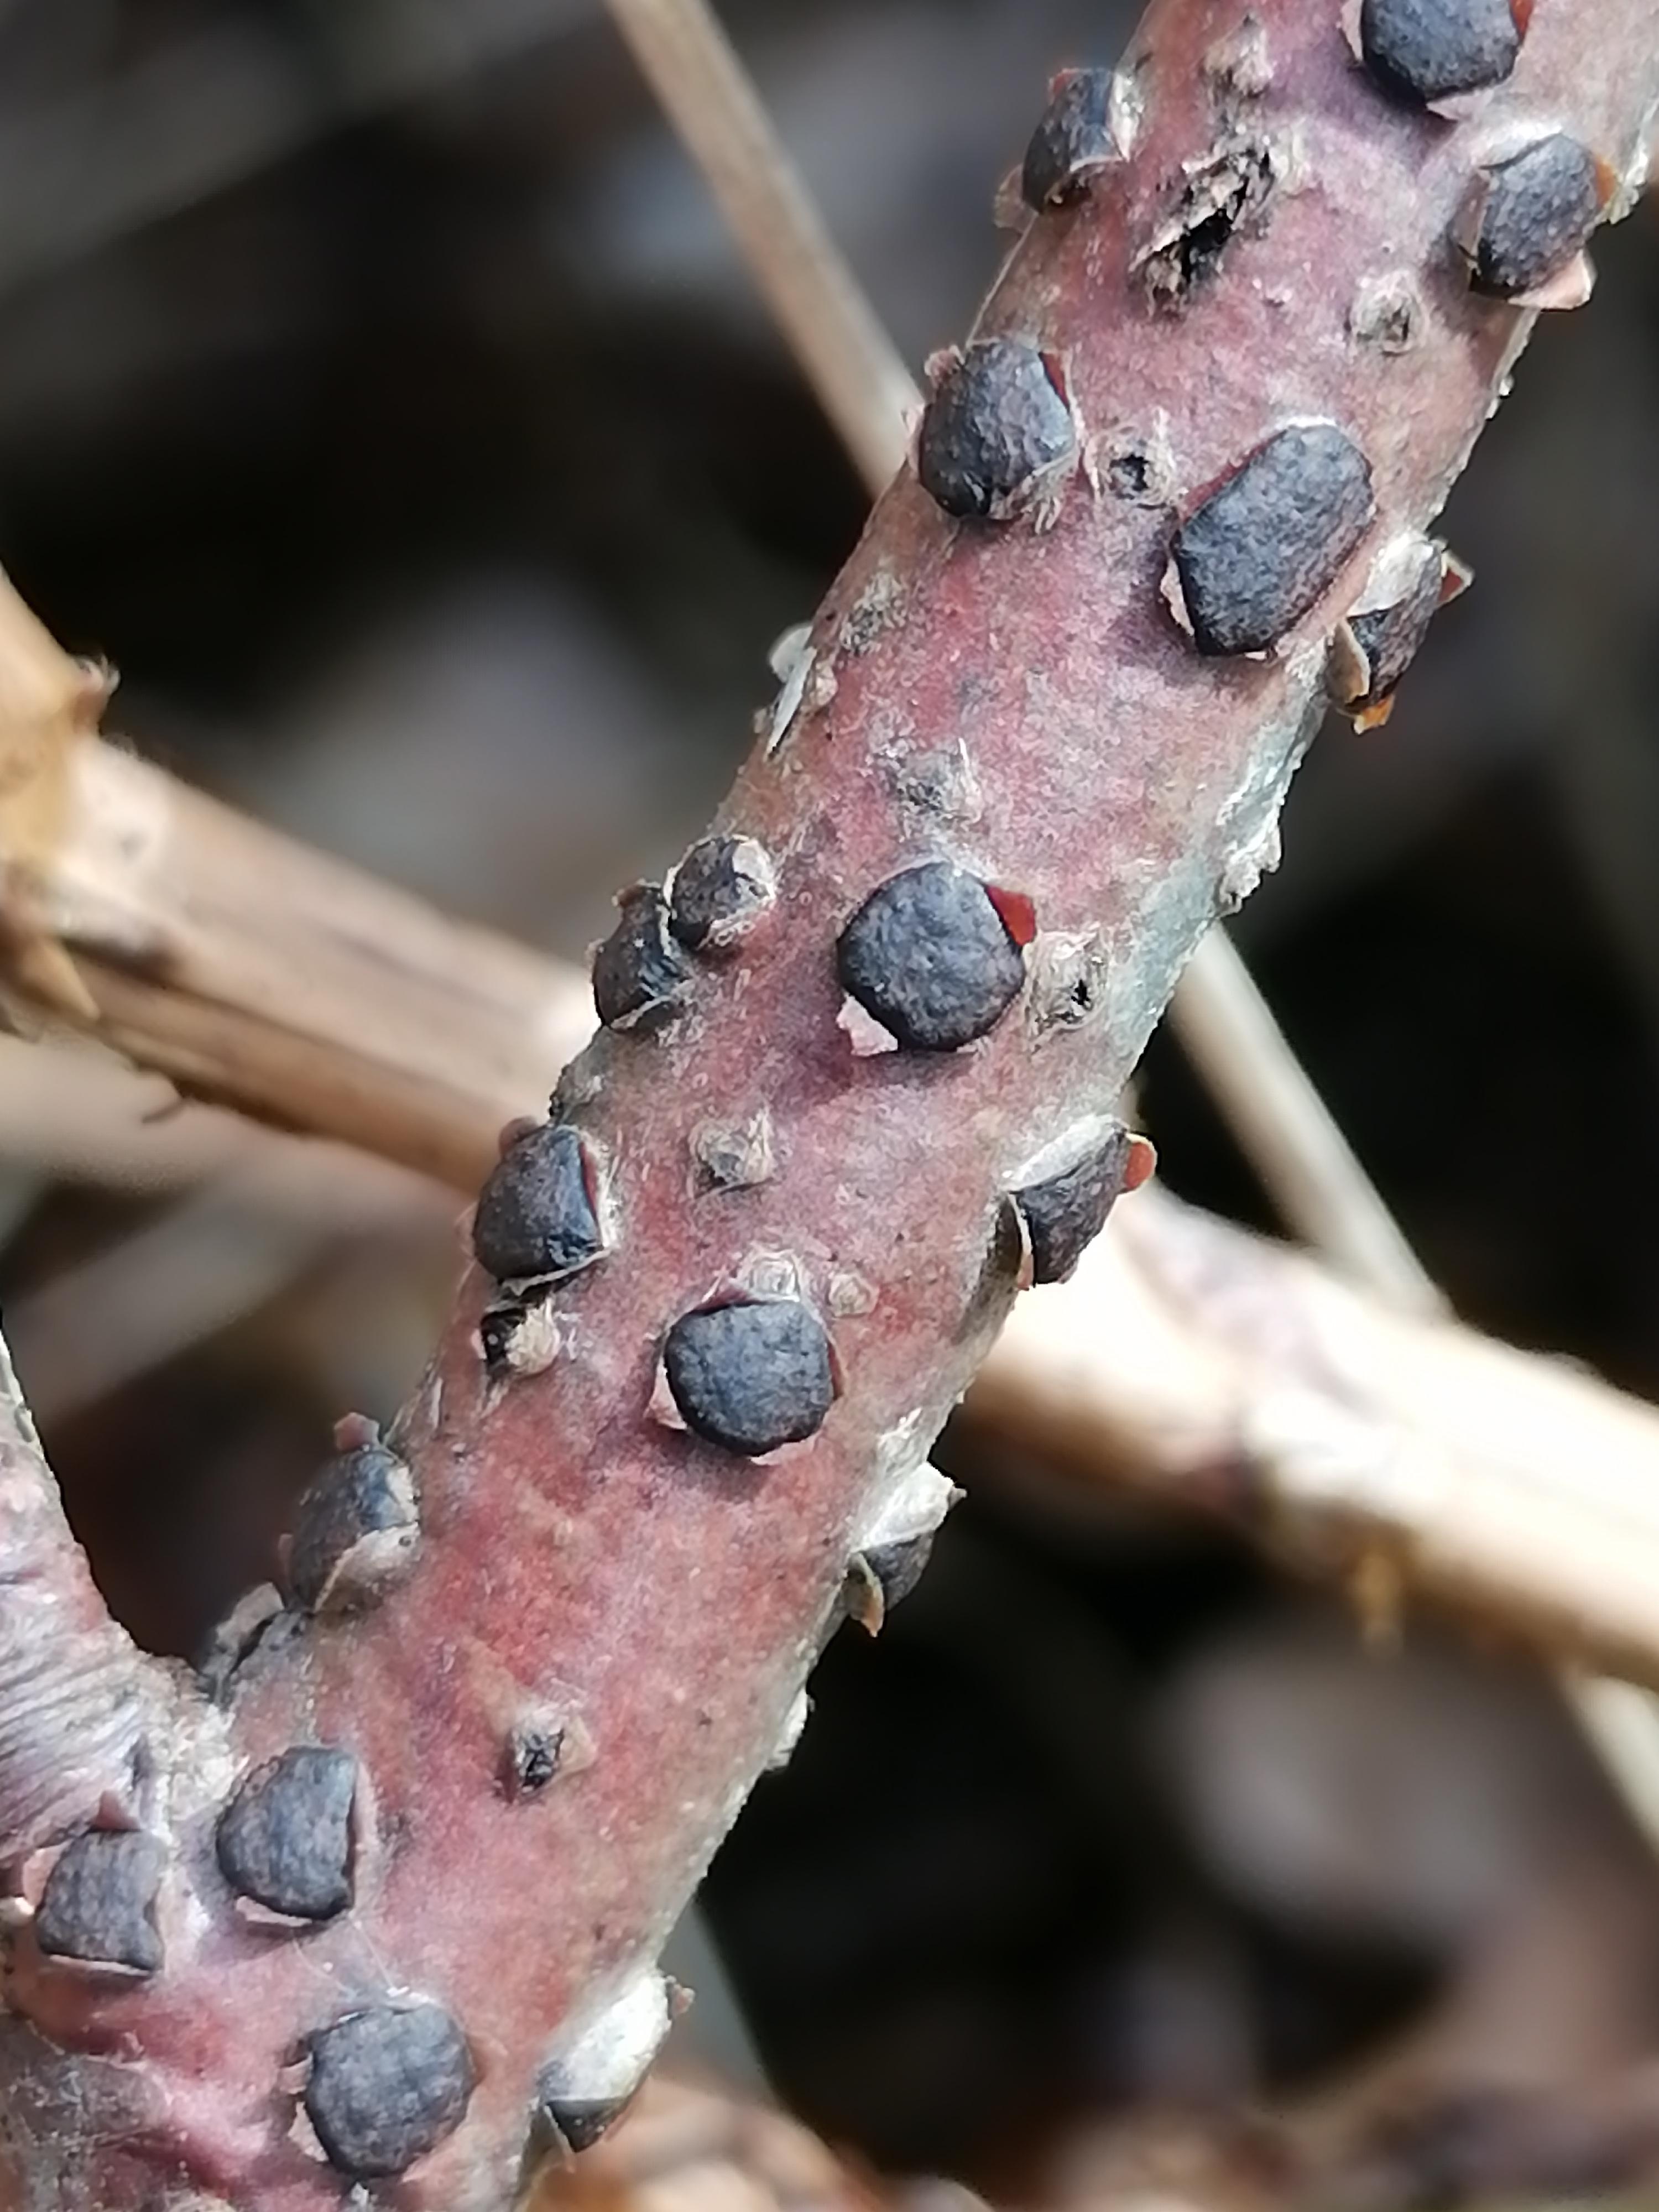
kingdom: Fungi
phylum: Ascomycota
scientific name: Ascomycota
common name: sæksvampe
